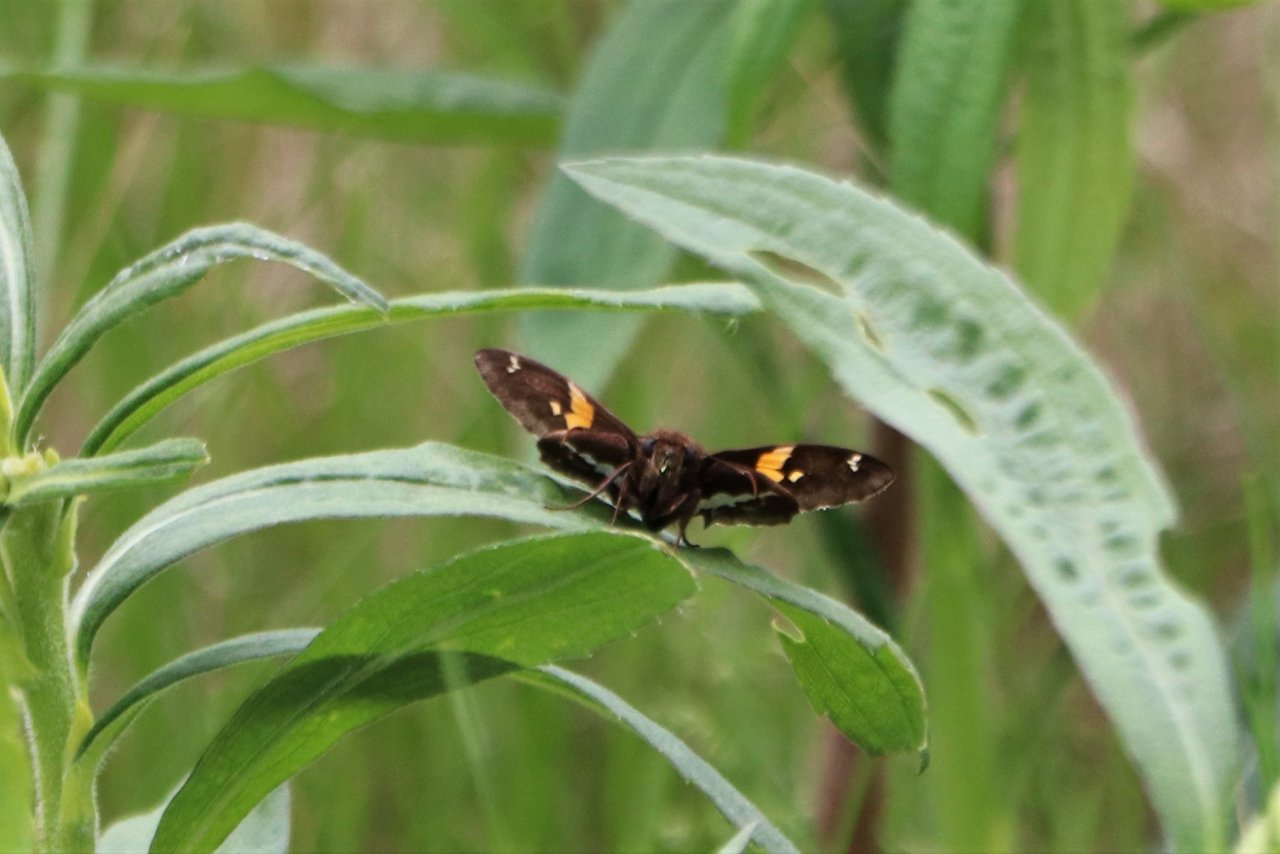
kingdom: Animalia
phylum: Arthropoda
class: Insecta
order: Lepidoptera
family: Hesperiidae
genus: Epargyreus
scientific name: Epargyreus clarus
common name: Silver-spotted Skipper
